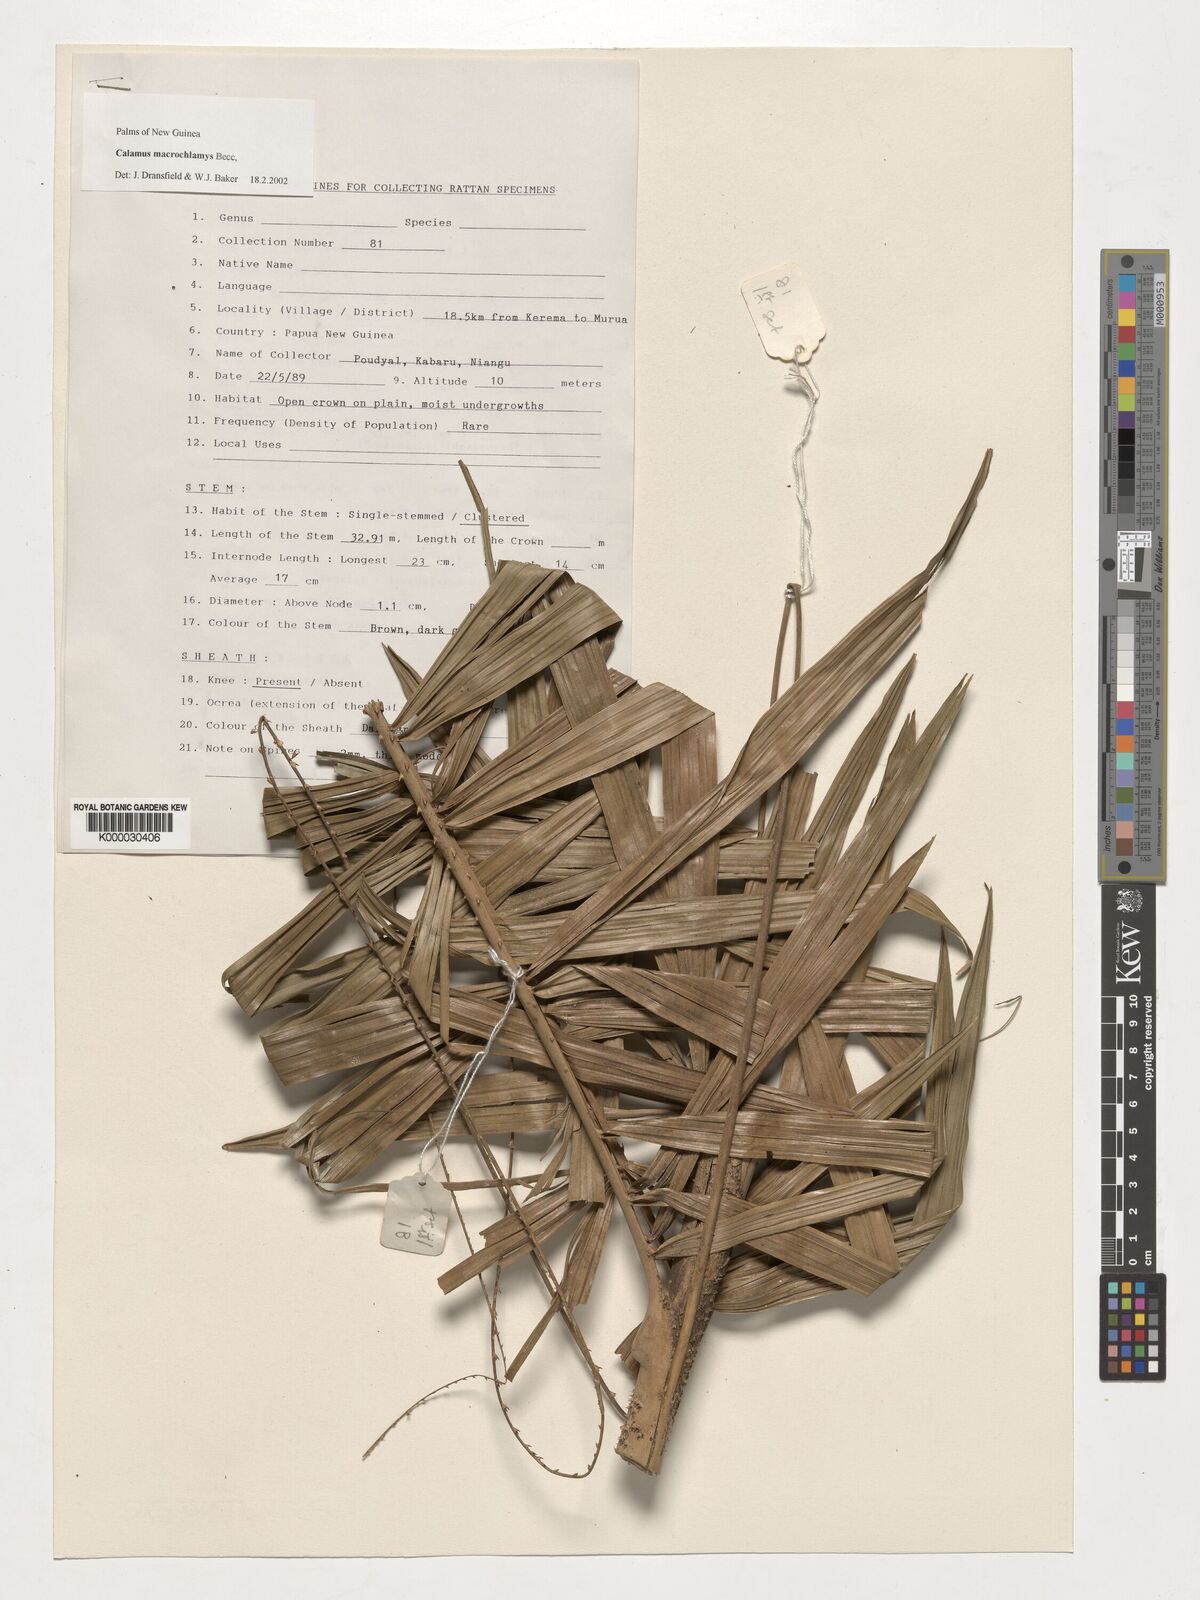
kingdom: Plantae
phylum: Tracheophyta
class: Liliopsida
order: Arecales
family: Arecaceae
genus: Calamus
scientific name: Calamus macrochlamys
